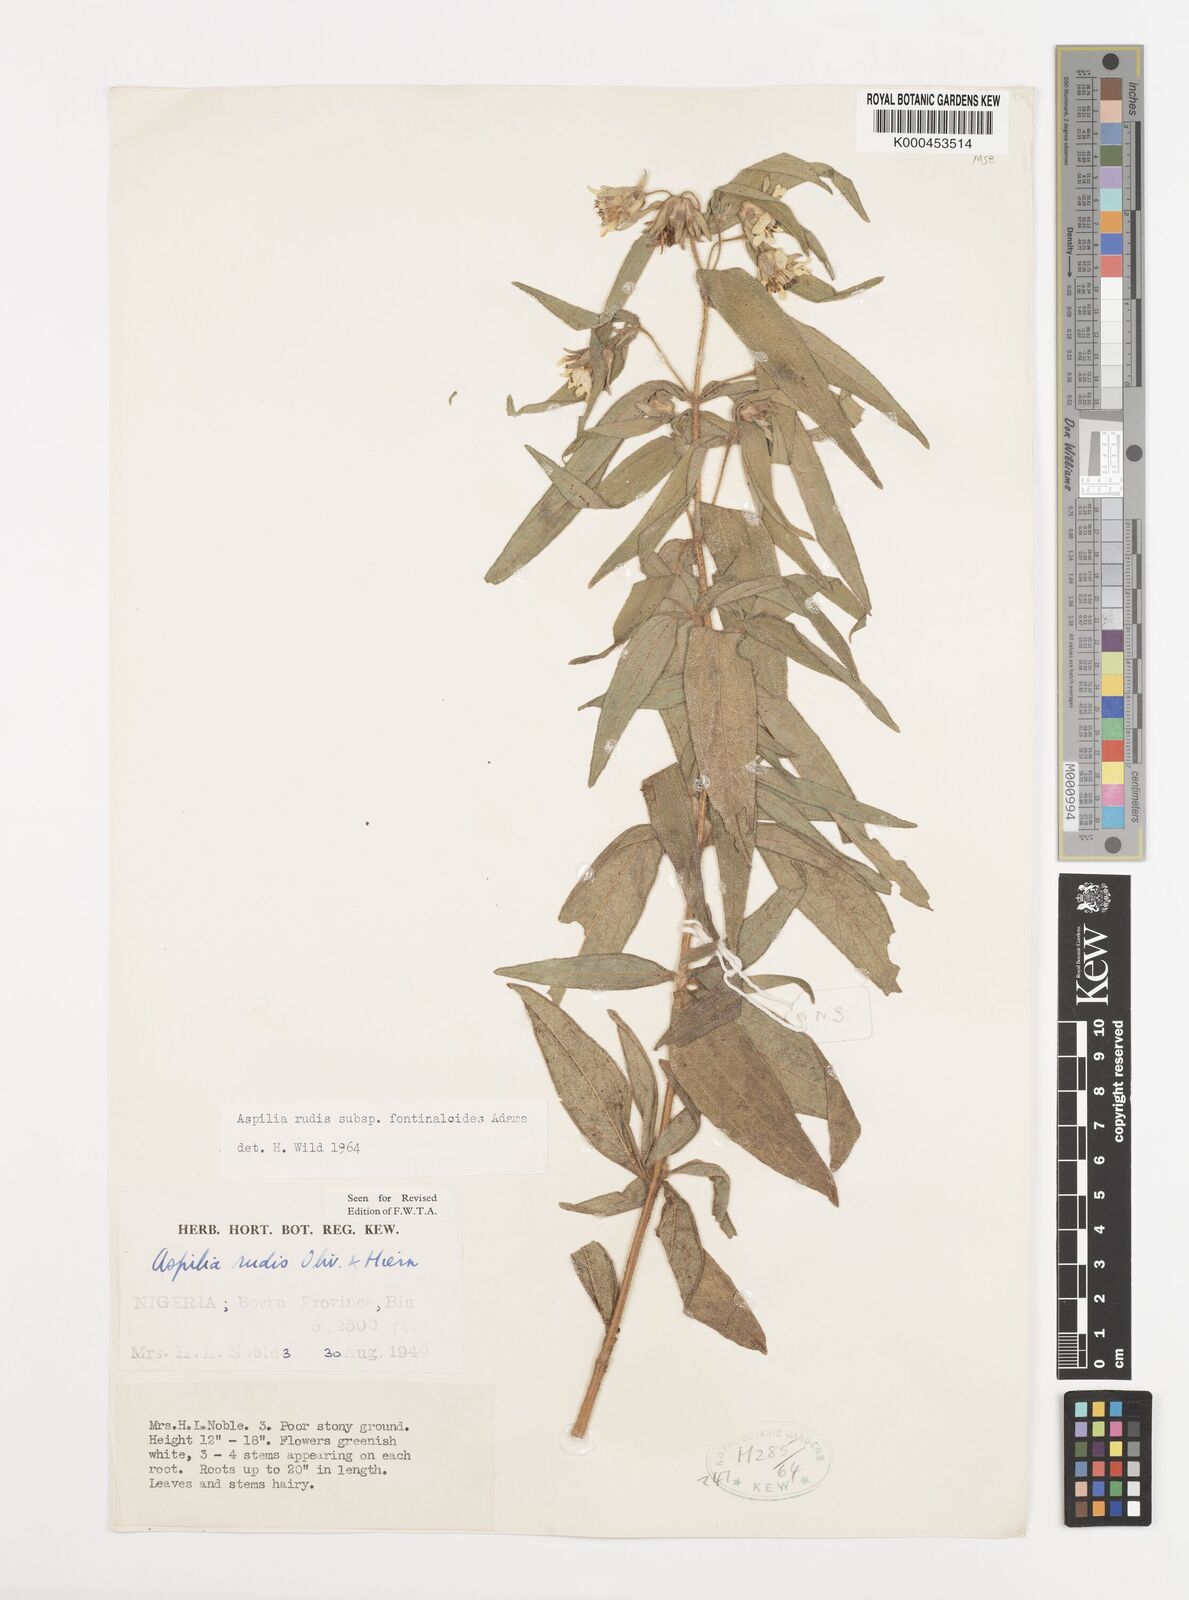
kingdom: Plantae
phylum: Tracheophyta
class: Magnoliopsida
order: Asterales
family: Asteraceae
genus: Aspilia
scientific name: Aspilia rudis
